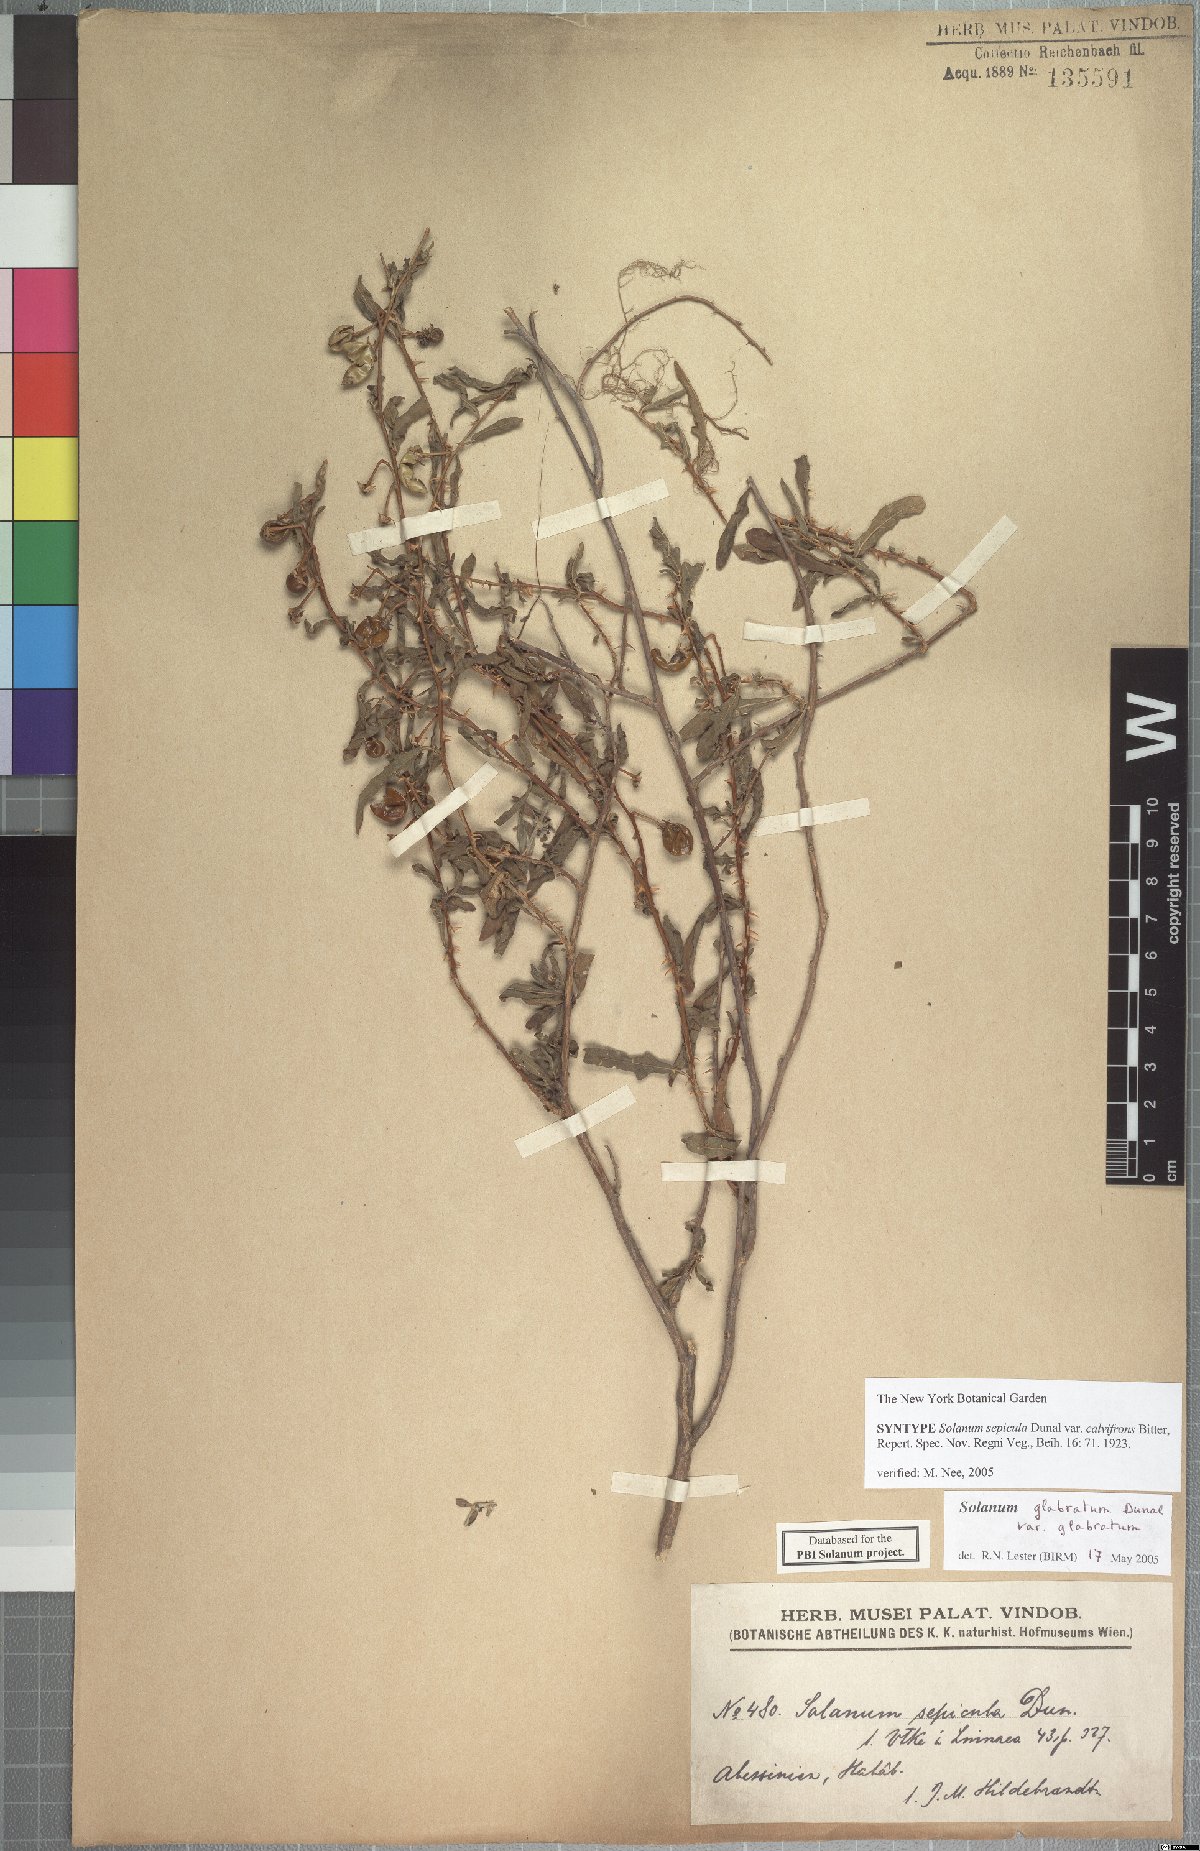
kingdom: Plantae
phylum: Tracheophyta
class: Magnoliopsida
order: Solanales
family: Solanaceae
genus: Solanum
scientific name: Solanum glabratum
